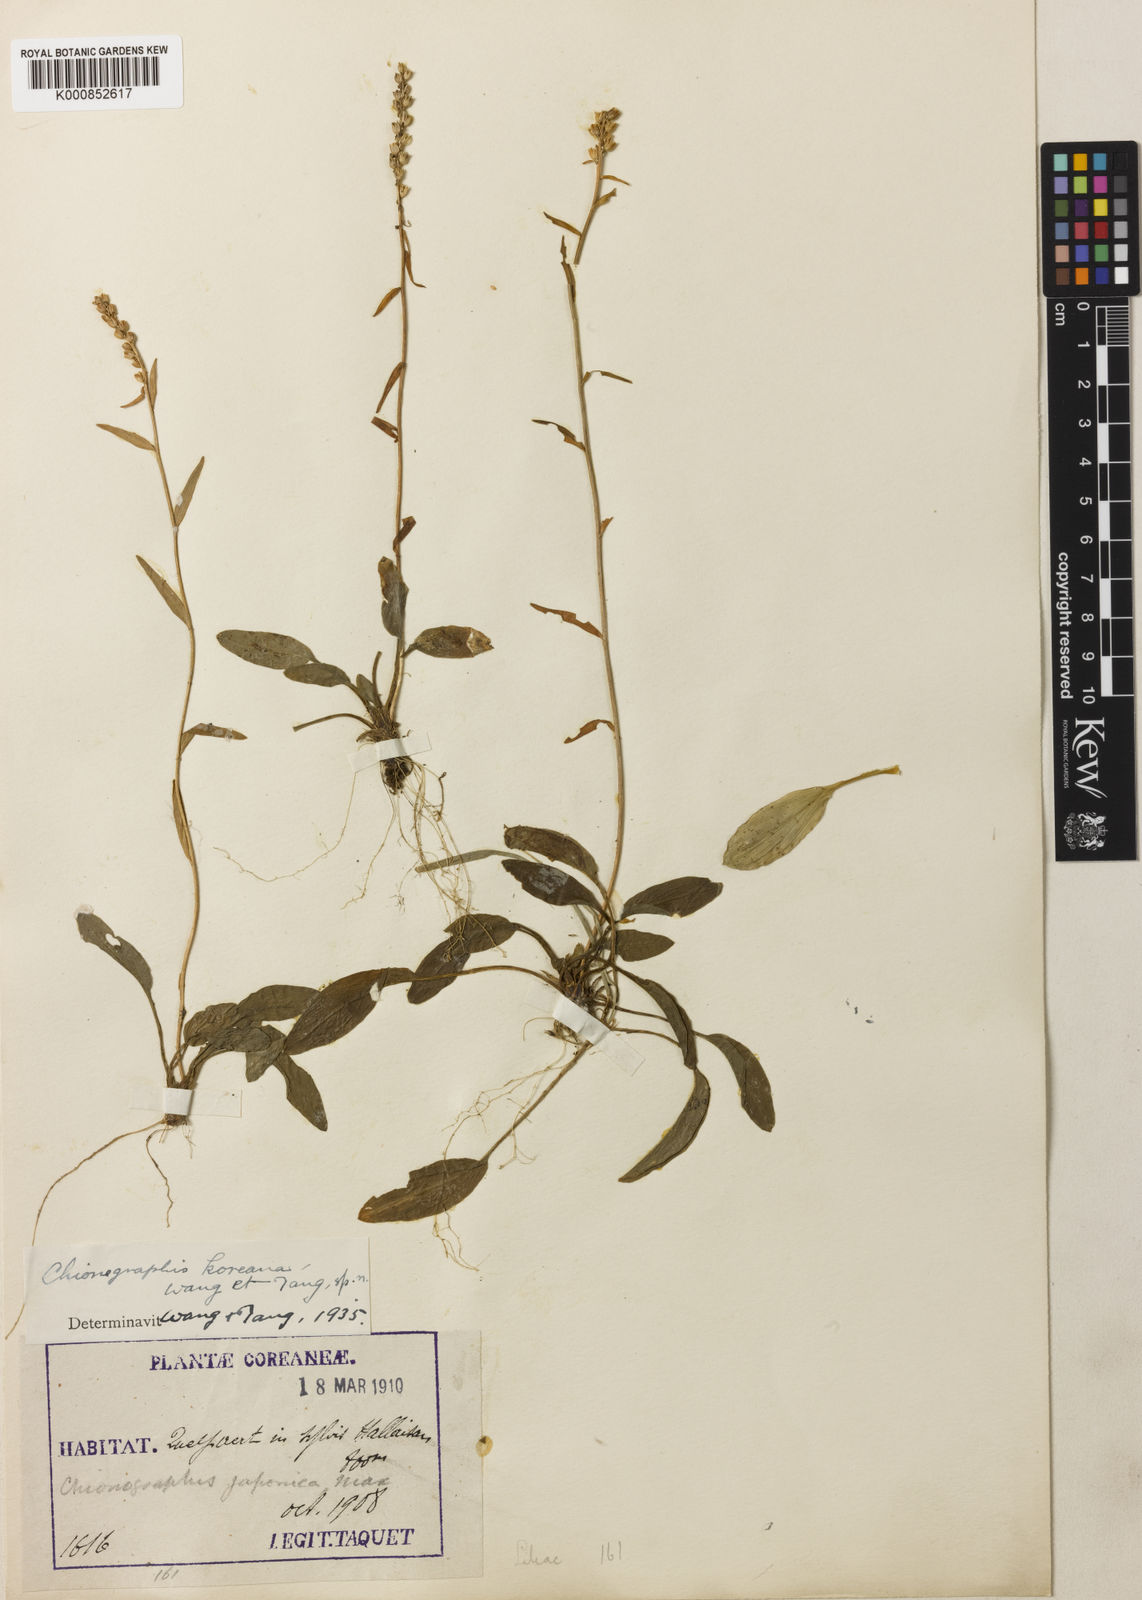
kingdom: Plantae
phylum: Tracheophyta
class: Liliopsida
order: Liliales
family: Melanthiaceae
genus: Chamaelirium
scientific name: Chamaelirium japonicum
